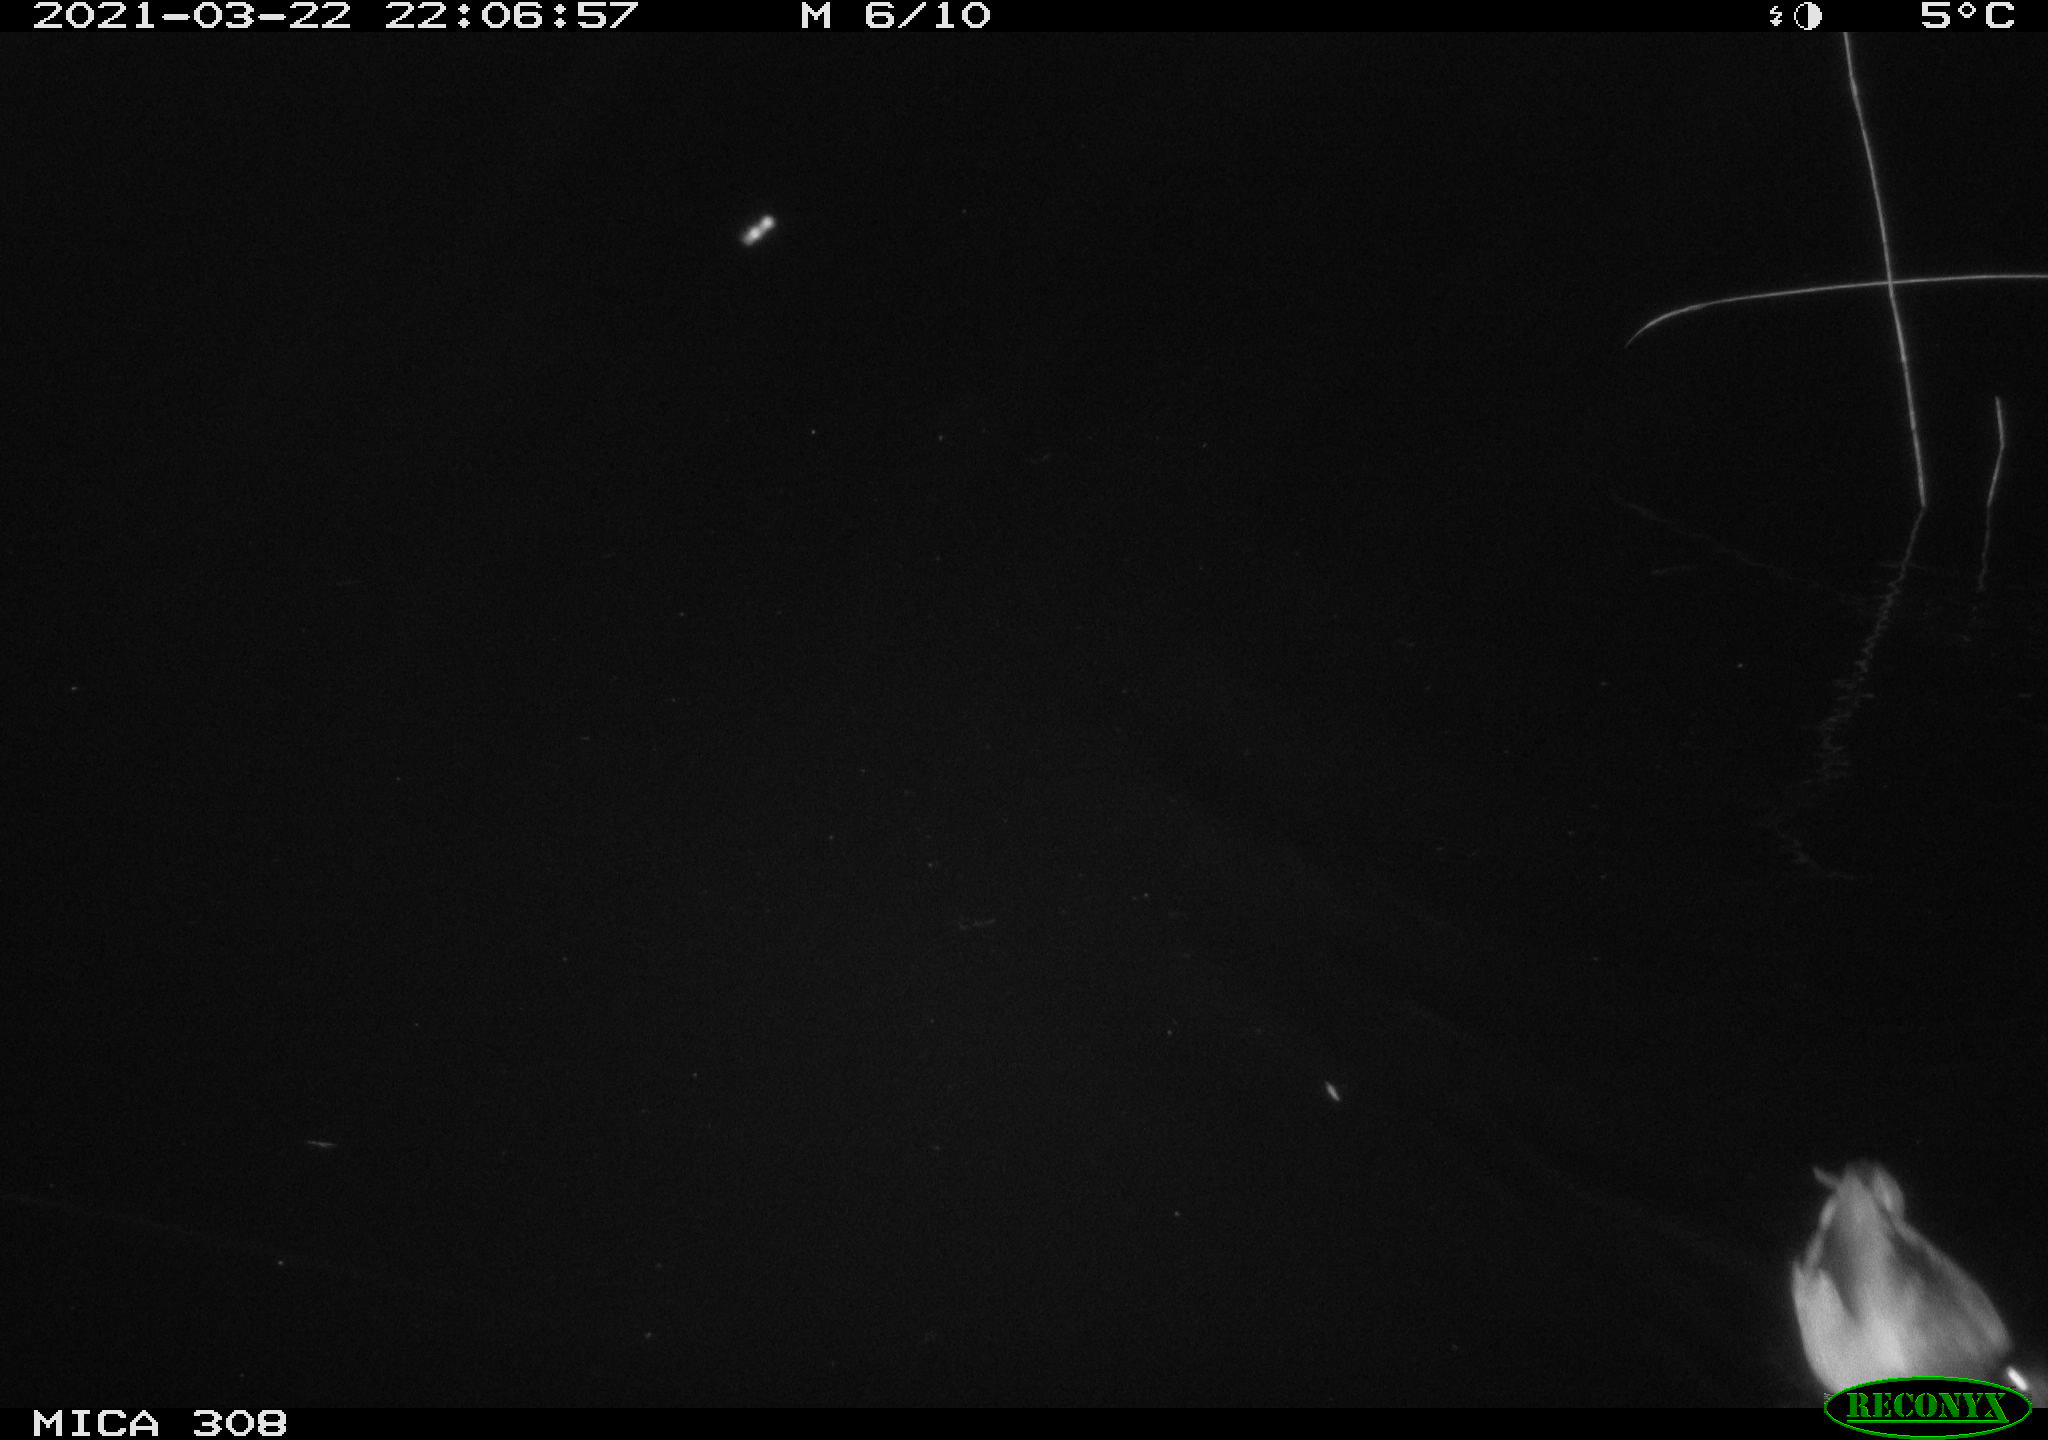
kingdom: Animalia
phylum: Chordata
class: Aves
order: Anseriformes
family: Anatidae
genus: Anas
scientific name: Anas platyrhynchos
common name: Mallard
